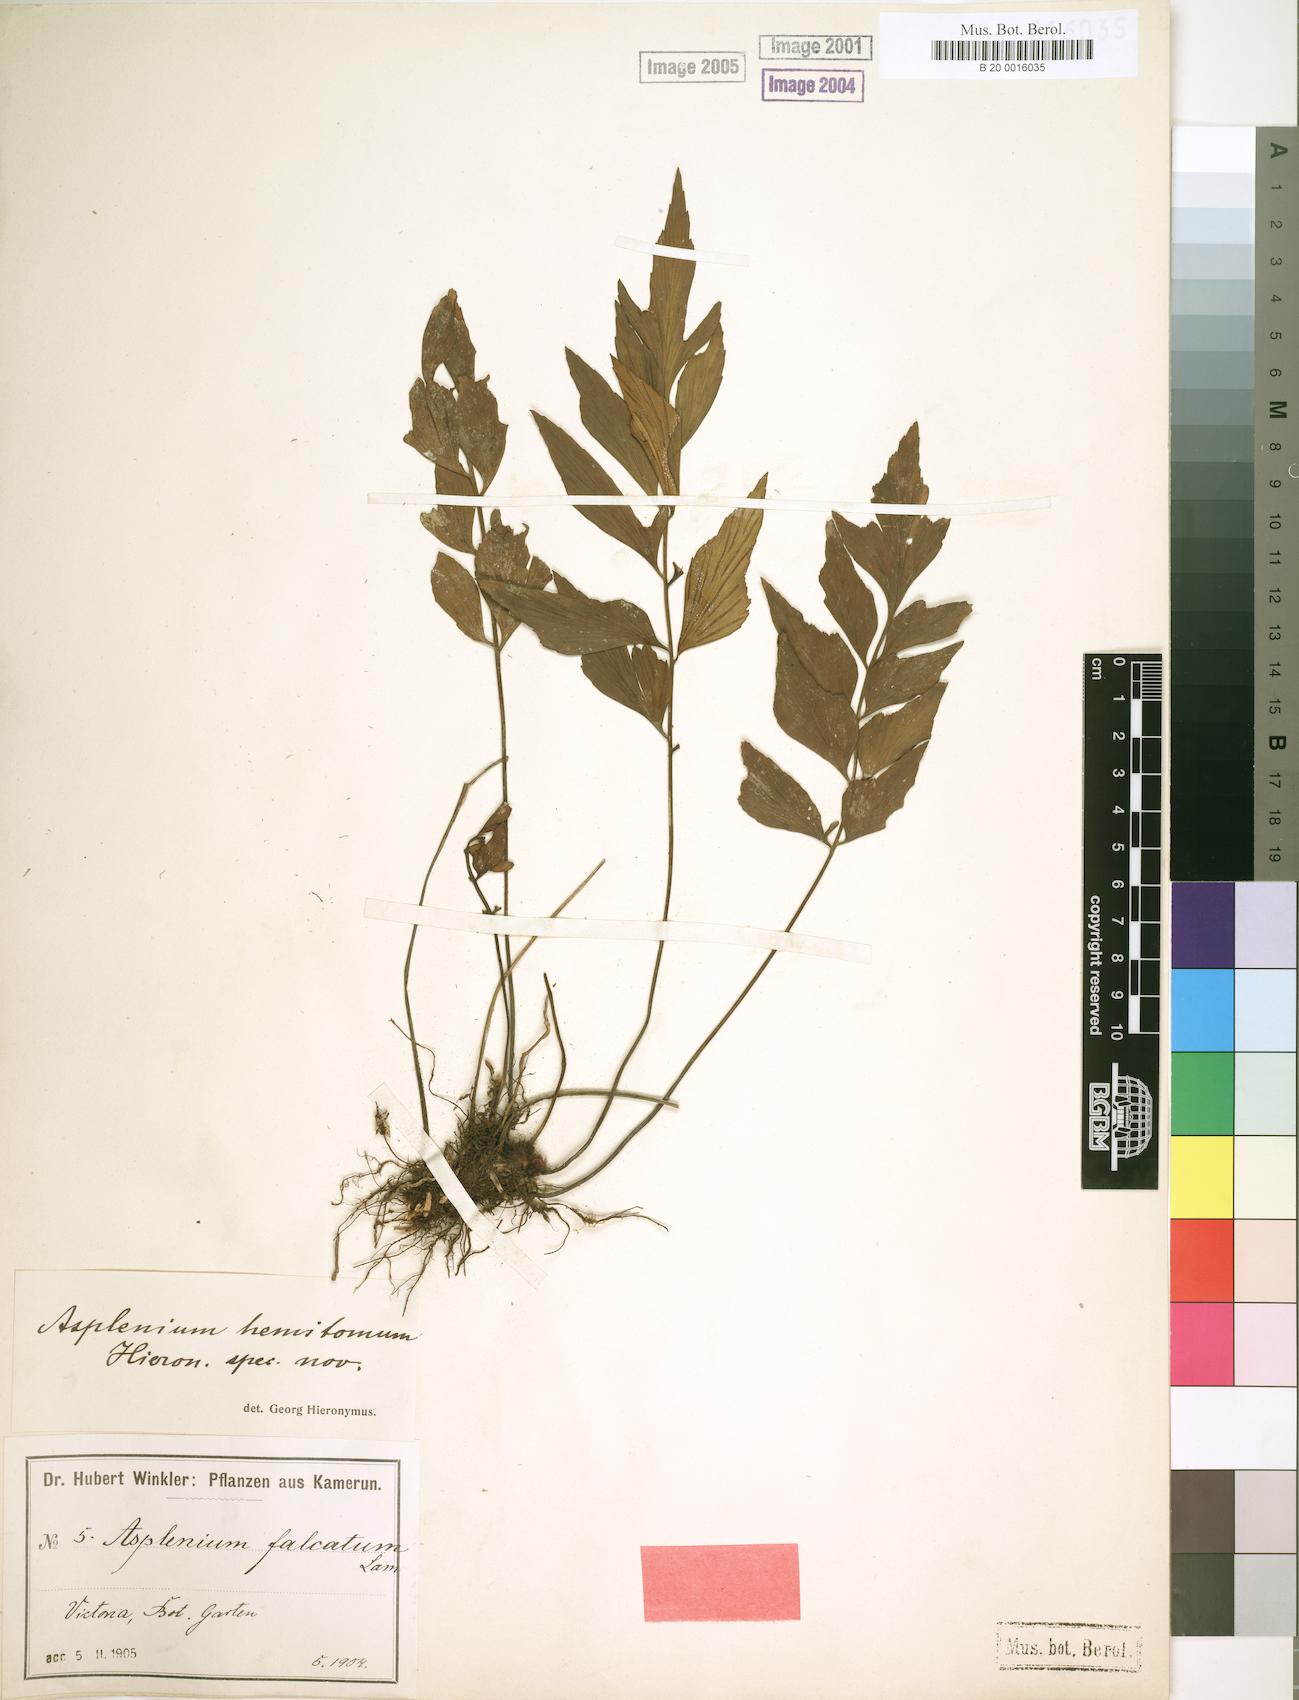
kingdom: Plantae
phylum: Tracheophyta
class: Polypodiopsida
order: Polypodiales
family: Aspleniaceae
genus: Asplenium
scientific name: Asplenium hemitomum
